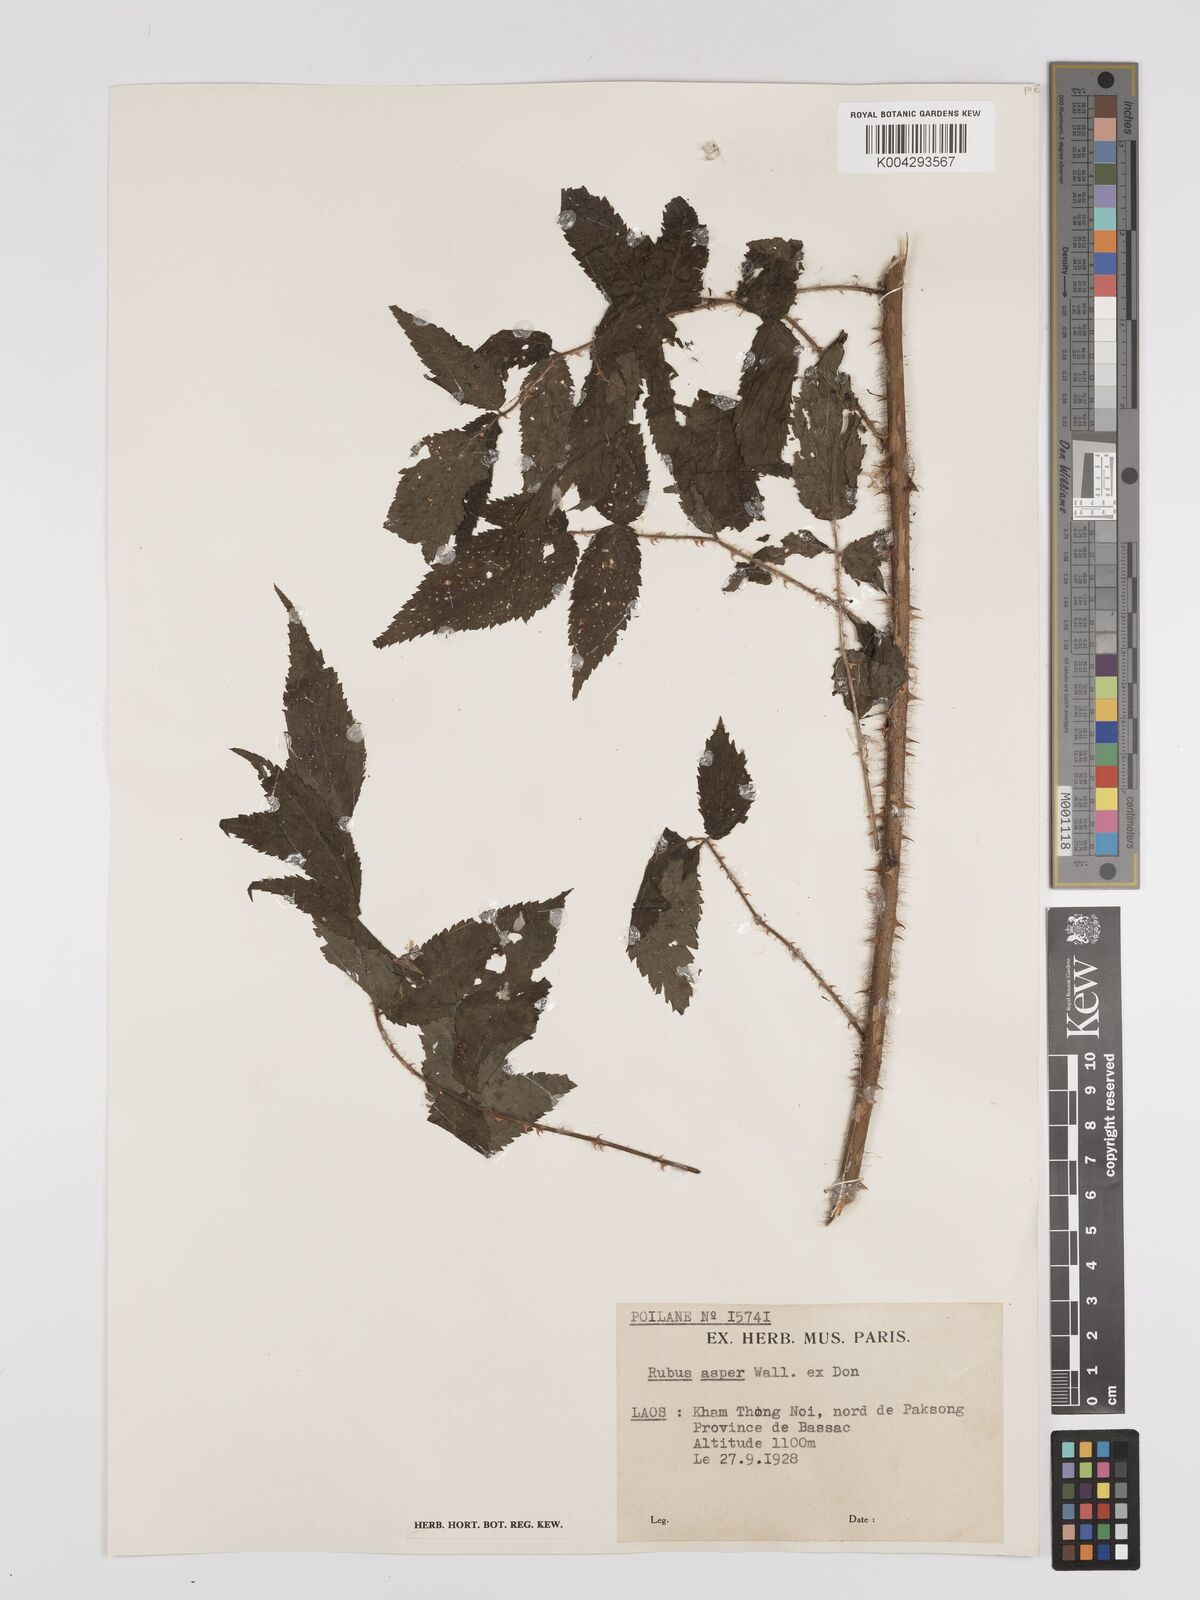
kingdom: Plantae
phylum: Tracheophyta
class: Magnoliopsida
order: Rosales
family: Rosaceae
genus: Rubus
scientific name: Rubus sumatranus
